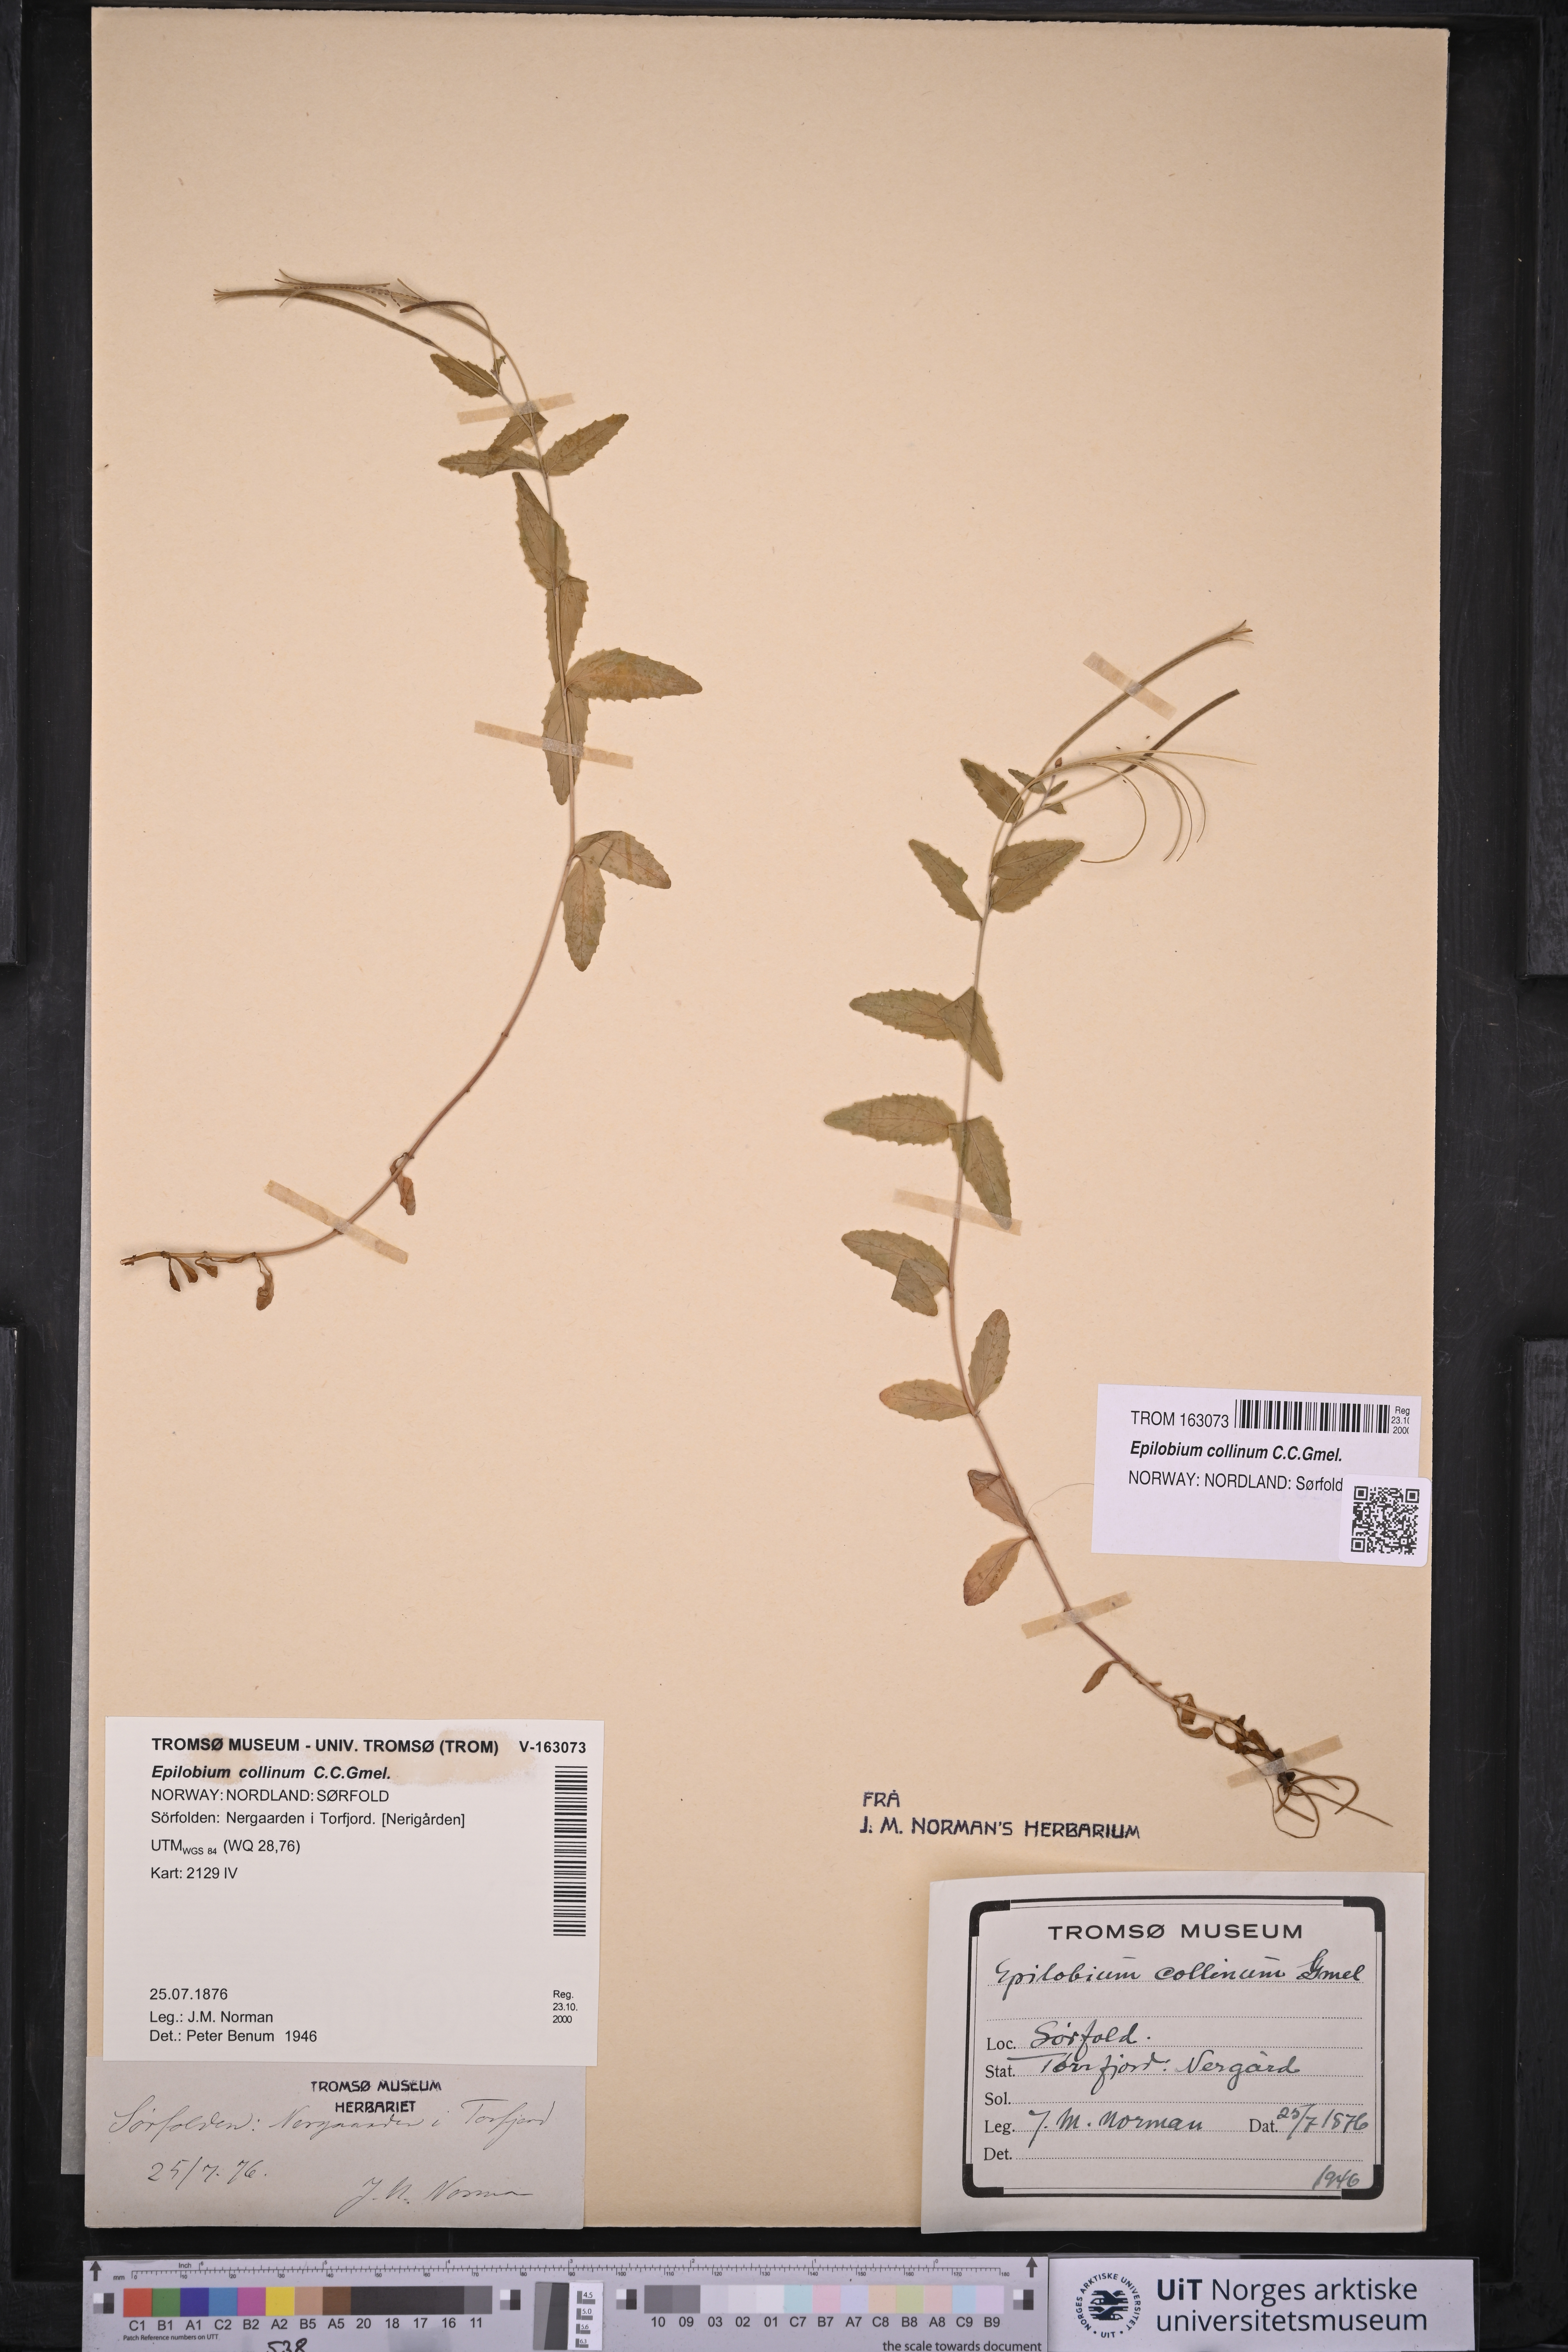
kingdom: Plantae
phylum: Tracheophyta
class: Magnoliopsida
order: Myrtales
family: Onagraceae
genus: Epilobium
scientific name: Epilobium collinum
